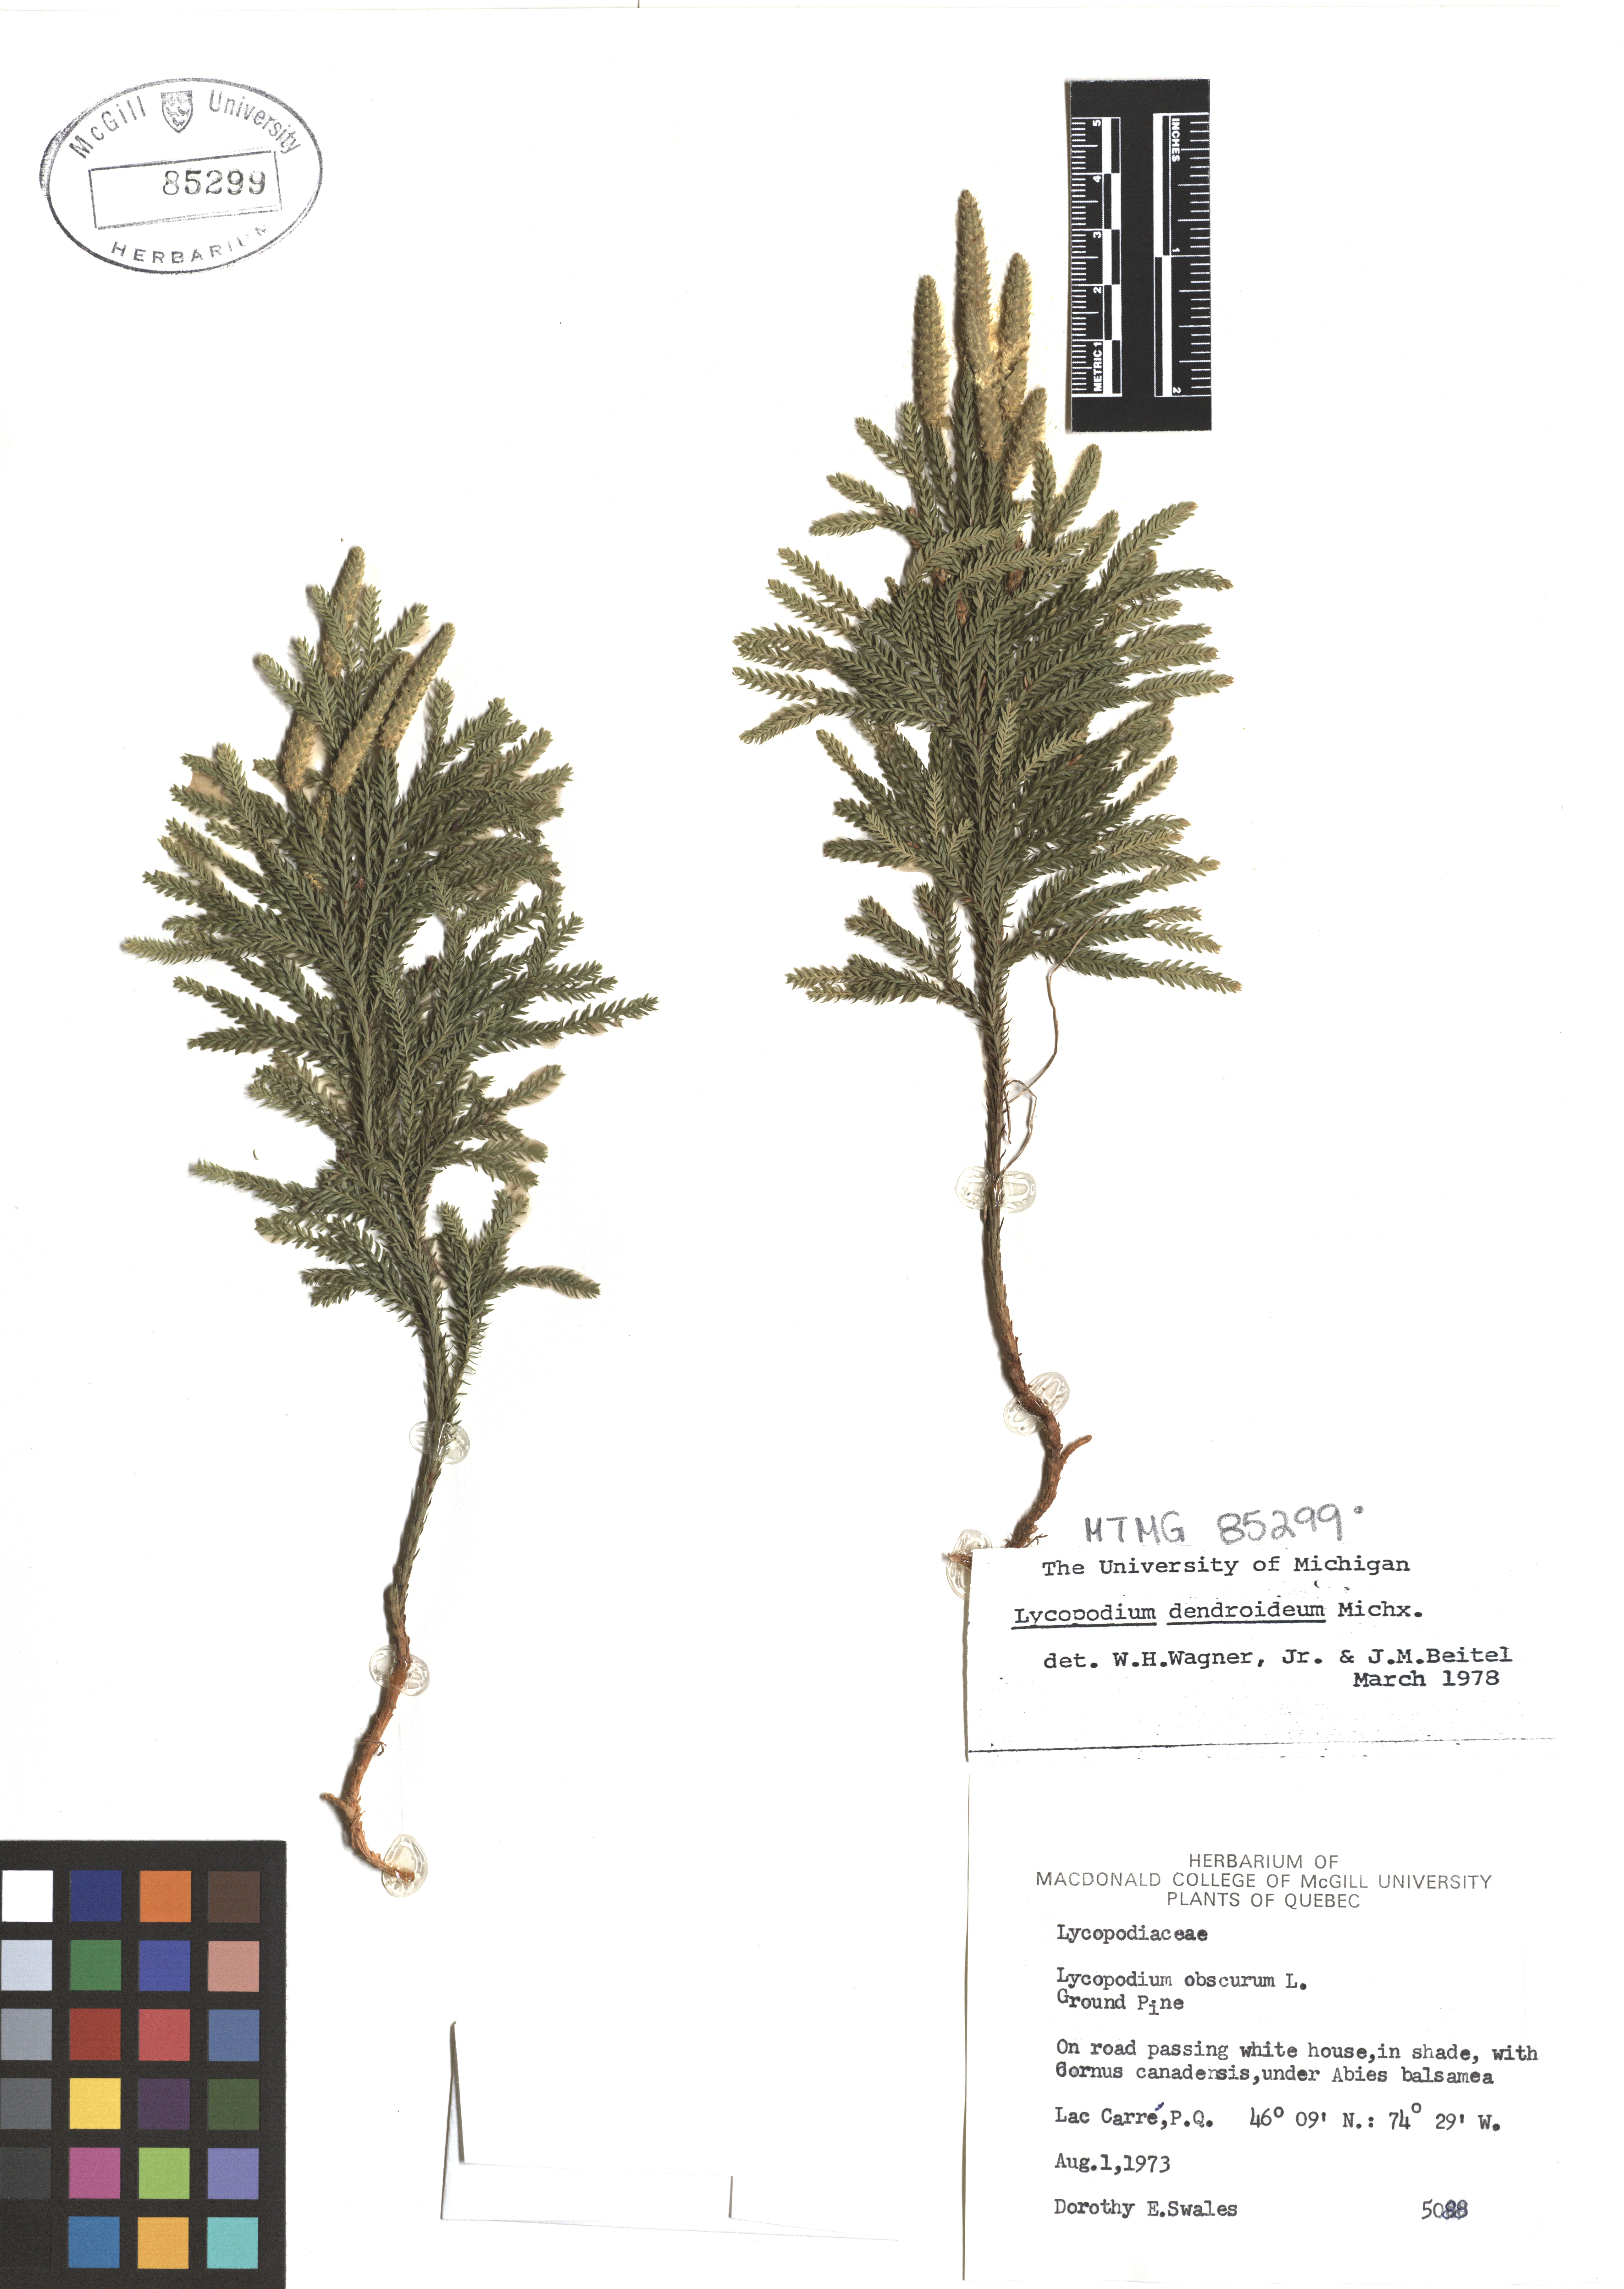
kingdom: Plantae
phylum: Tracheophyta
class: Lycopodiopsida
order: Lycopodiales
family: Lycopodiaceae
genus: Dendrolycopodium
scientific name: Dendrolycopodium dendroideum
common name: Northern tree-clubmoss
